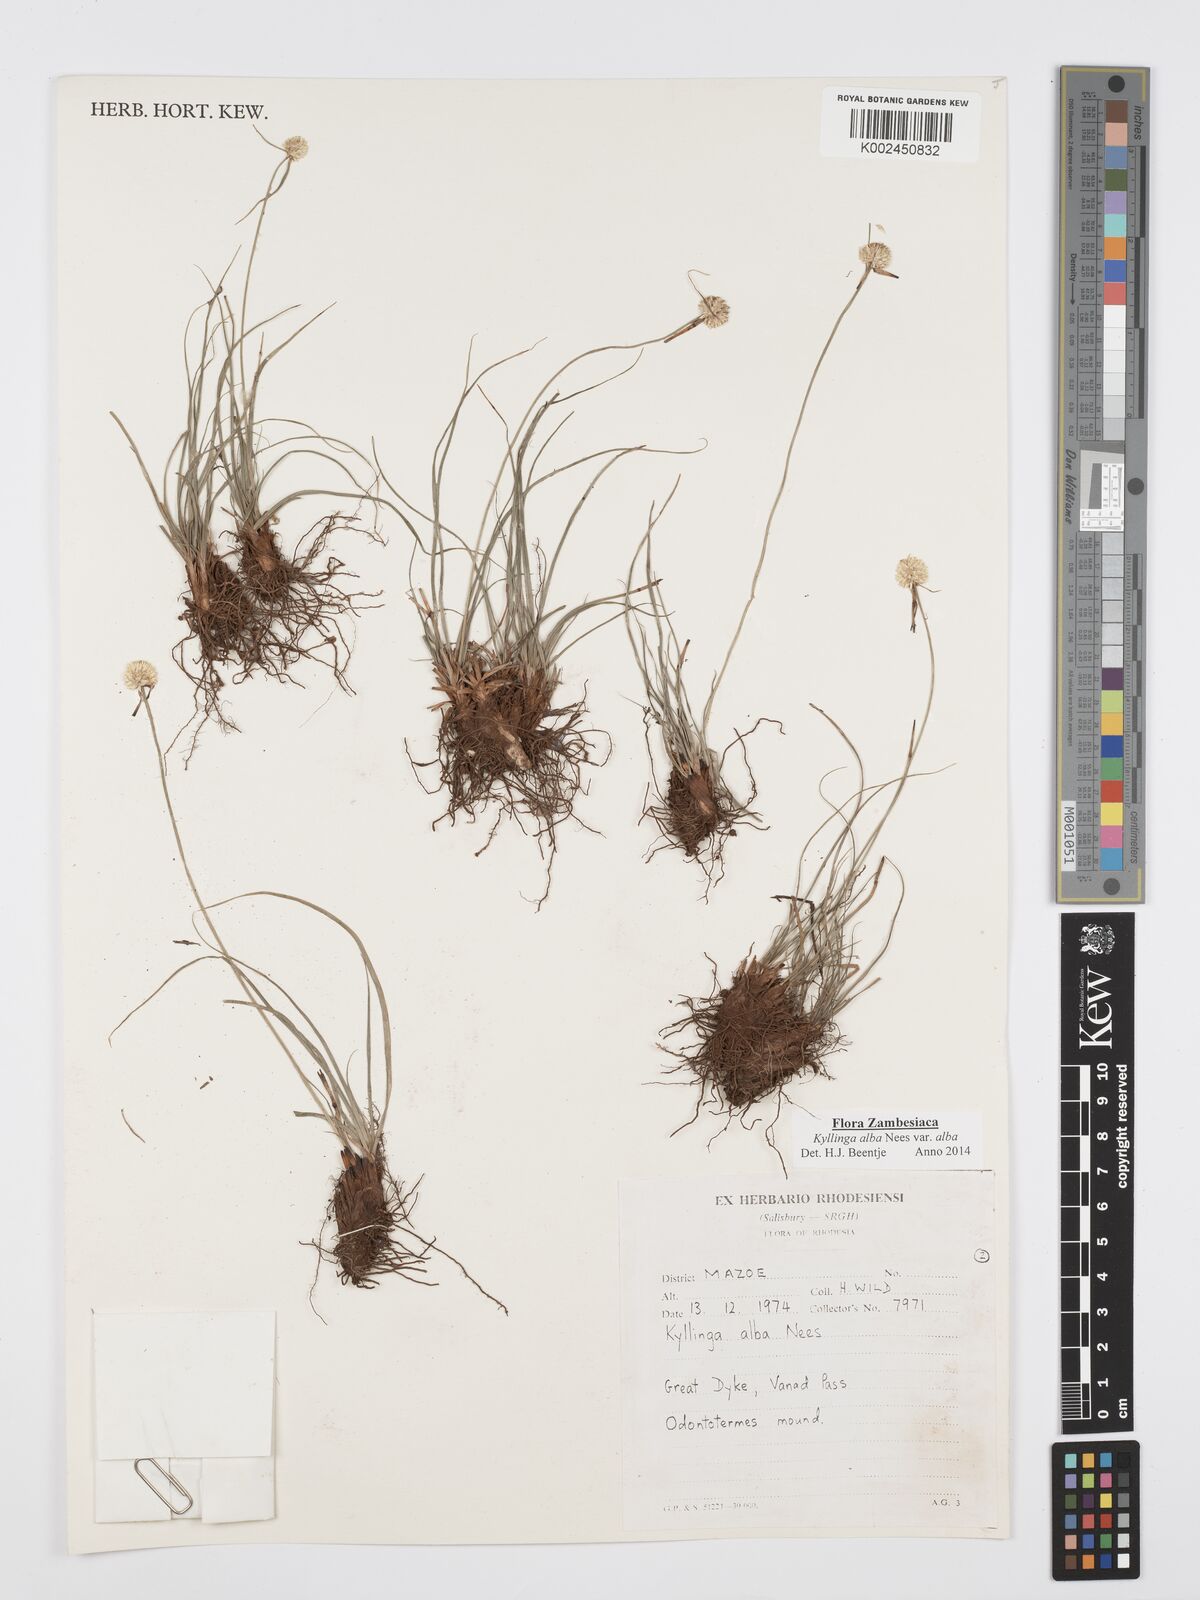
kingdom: Plantae
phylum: Tracheophyta
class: Liliopsida
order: Poales
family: Cyperaceae
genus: Cyperus
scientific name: Cyperus
